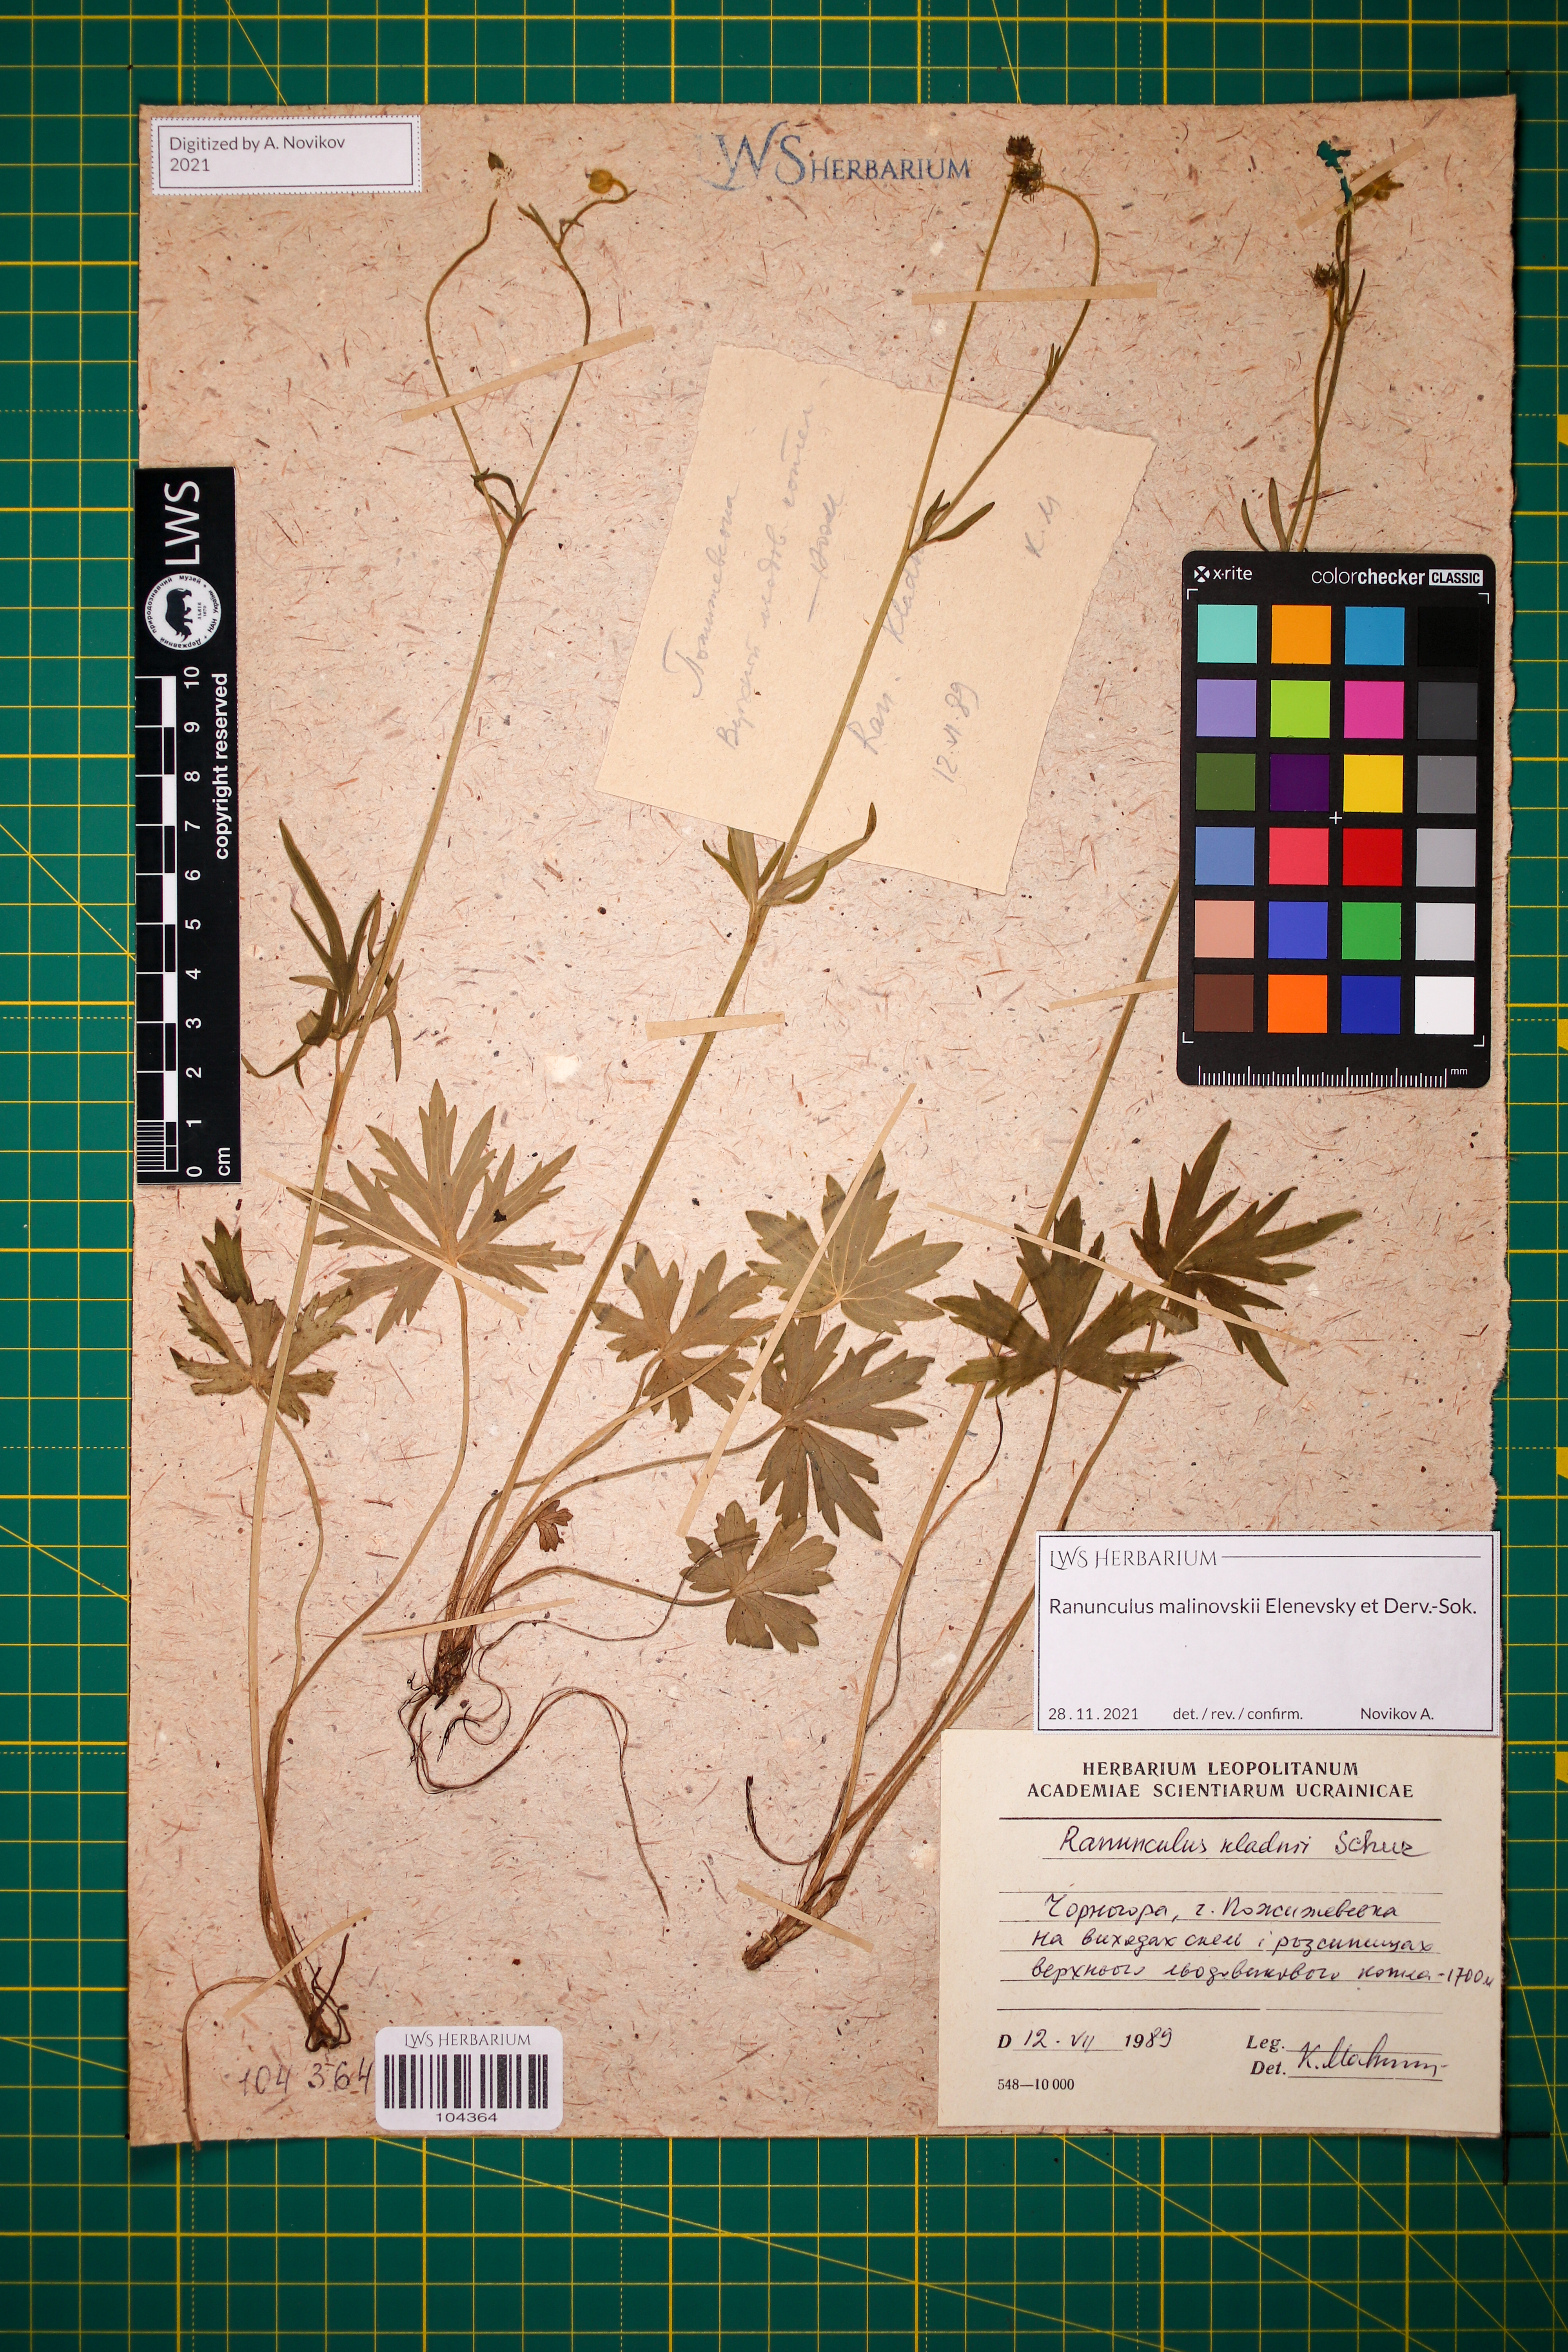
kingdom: Plantae
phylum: Tracheophyta
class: Magnoliopsida
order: Ranunculales
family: Ranunculaceae
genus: Ranunculus
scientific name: Ranunculus malinovskii
